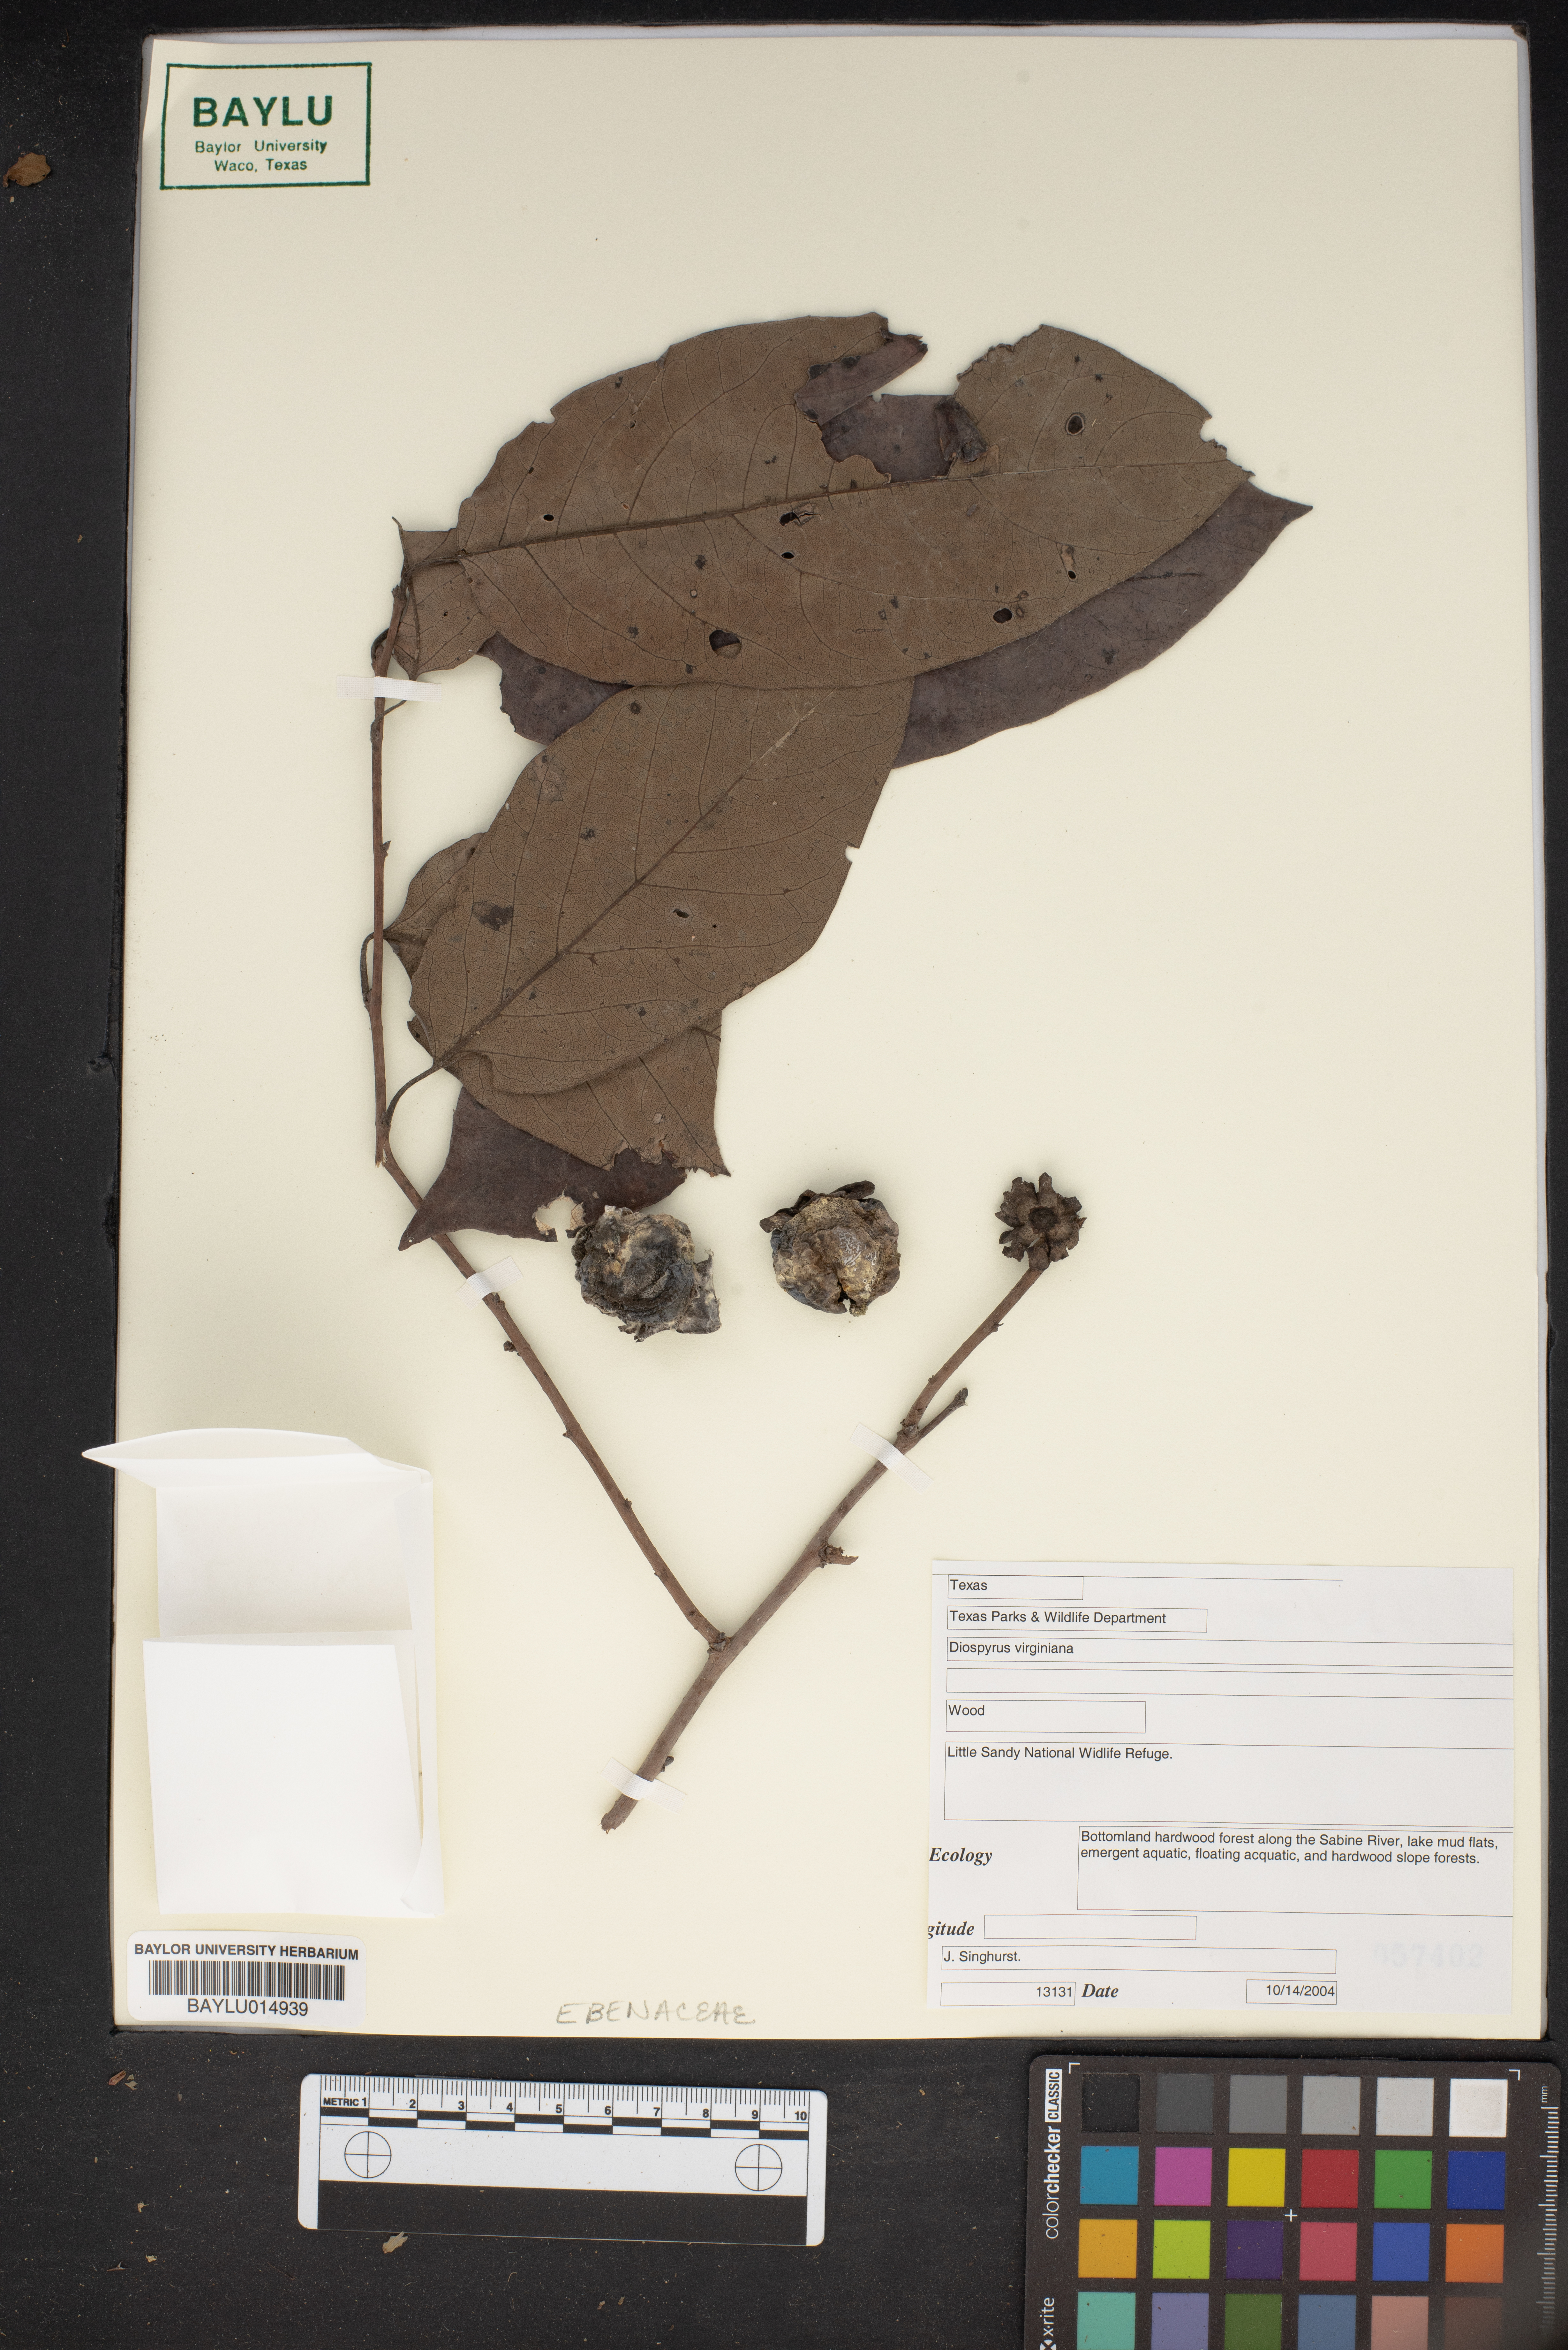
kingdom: Plantae
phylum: Tracheophyta
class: Magnoliopsida
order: Ericales
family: Ebenaceae
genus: Diospyros
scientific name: Diospyros virginiana
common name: Persimmon
